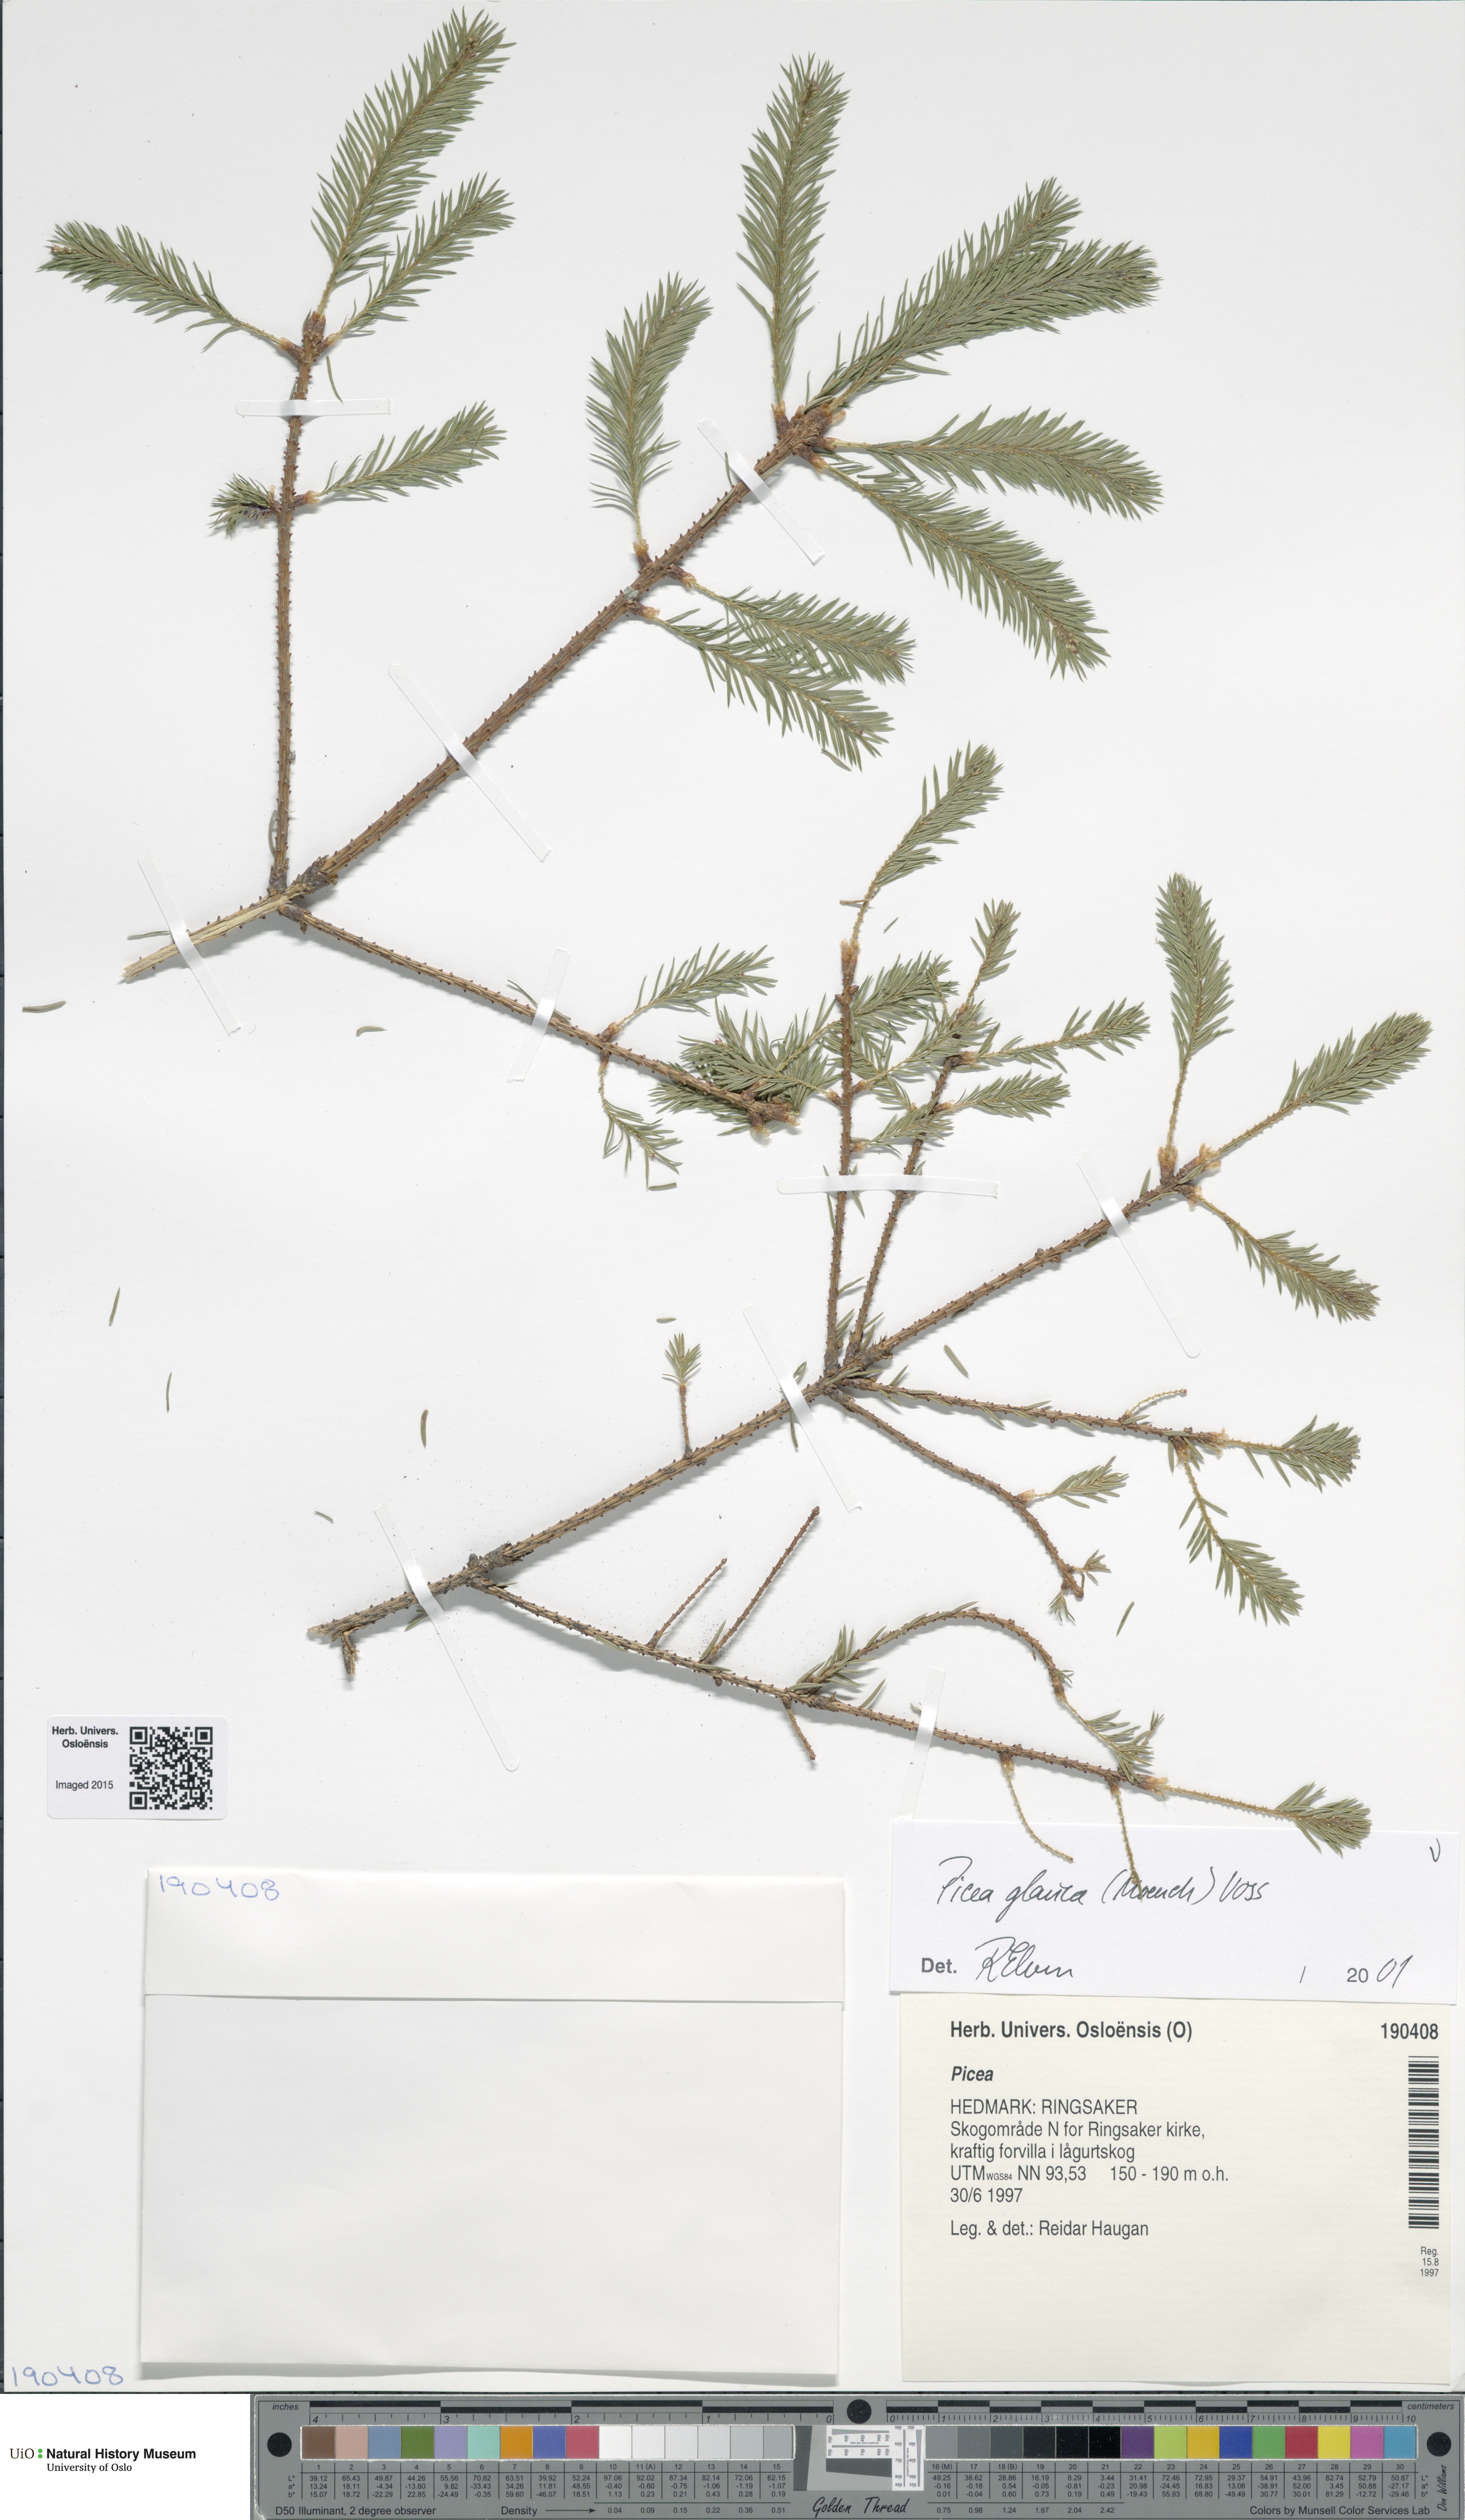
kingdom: Plantae
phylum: Tracheophyta
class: Pinopsida
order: Pinales
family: Pinaceae
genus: Picea
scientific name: Picea glauca
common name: White spruce
